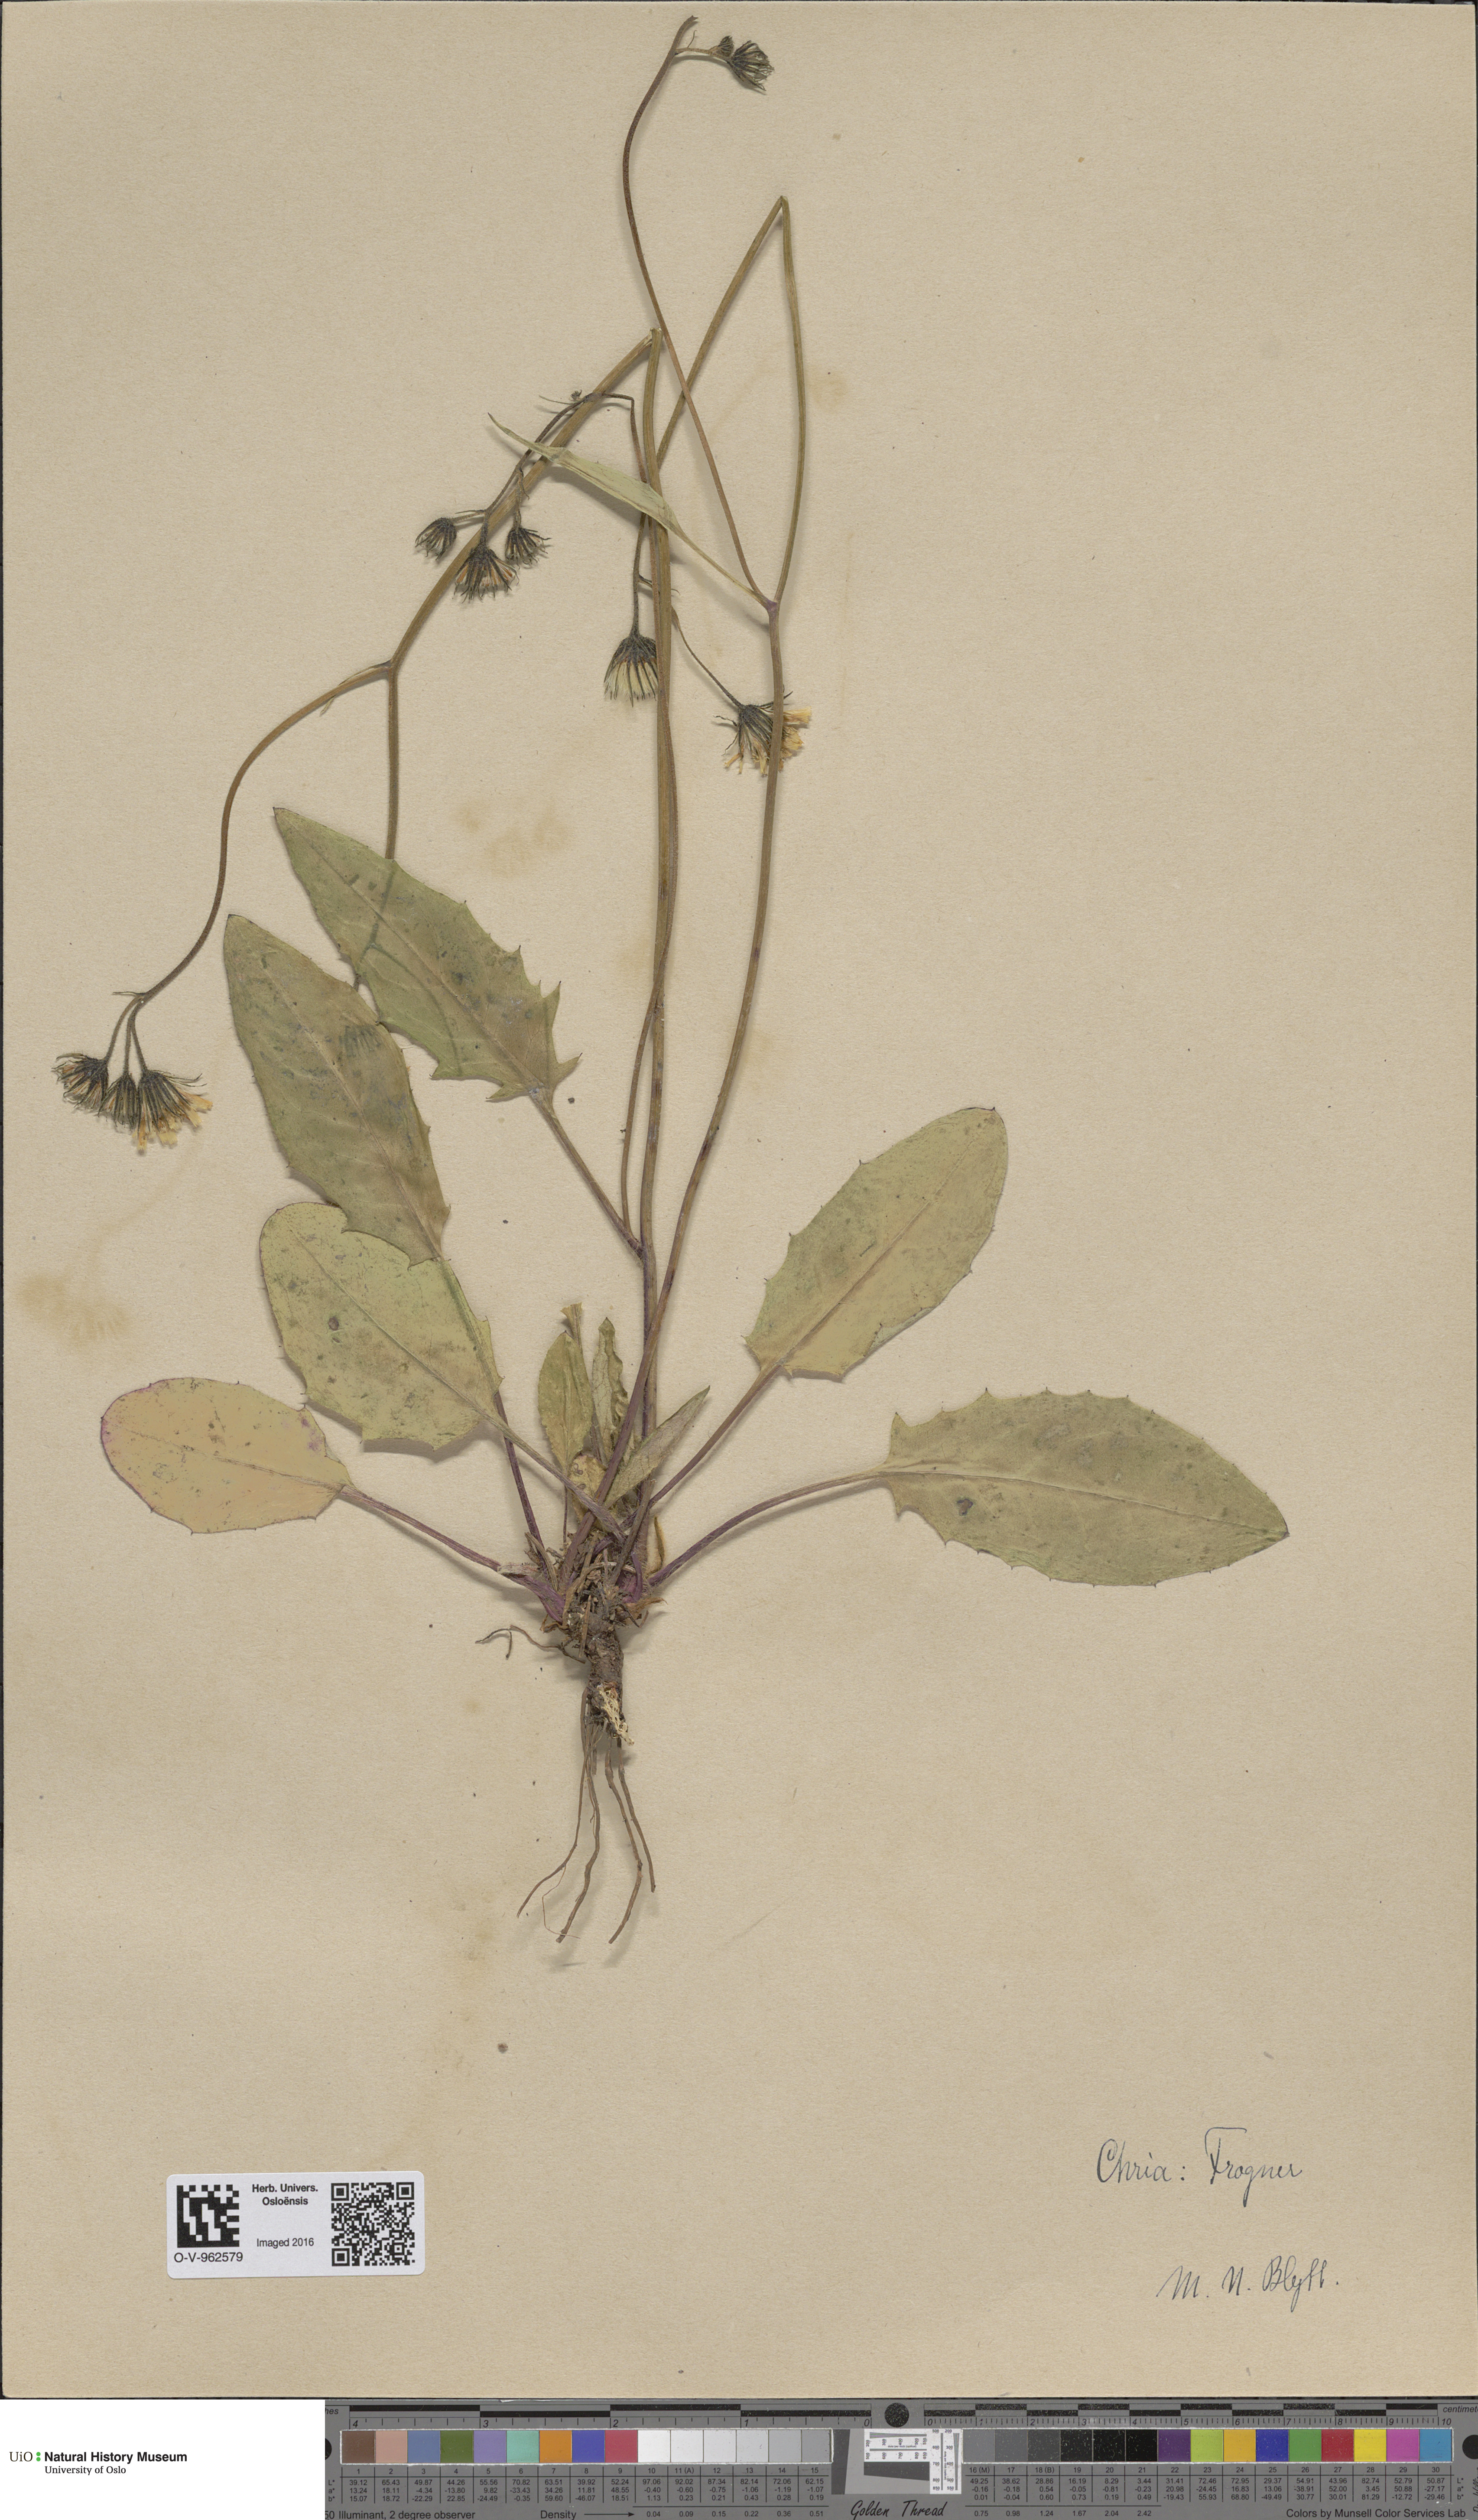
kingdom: Plantae
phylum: Tracheophyta
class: Magnoliopsida
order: Asterales
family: Asteraceae
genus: Hieracium
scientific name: Hieracium
